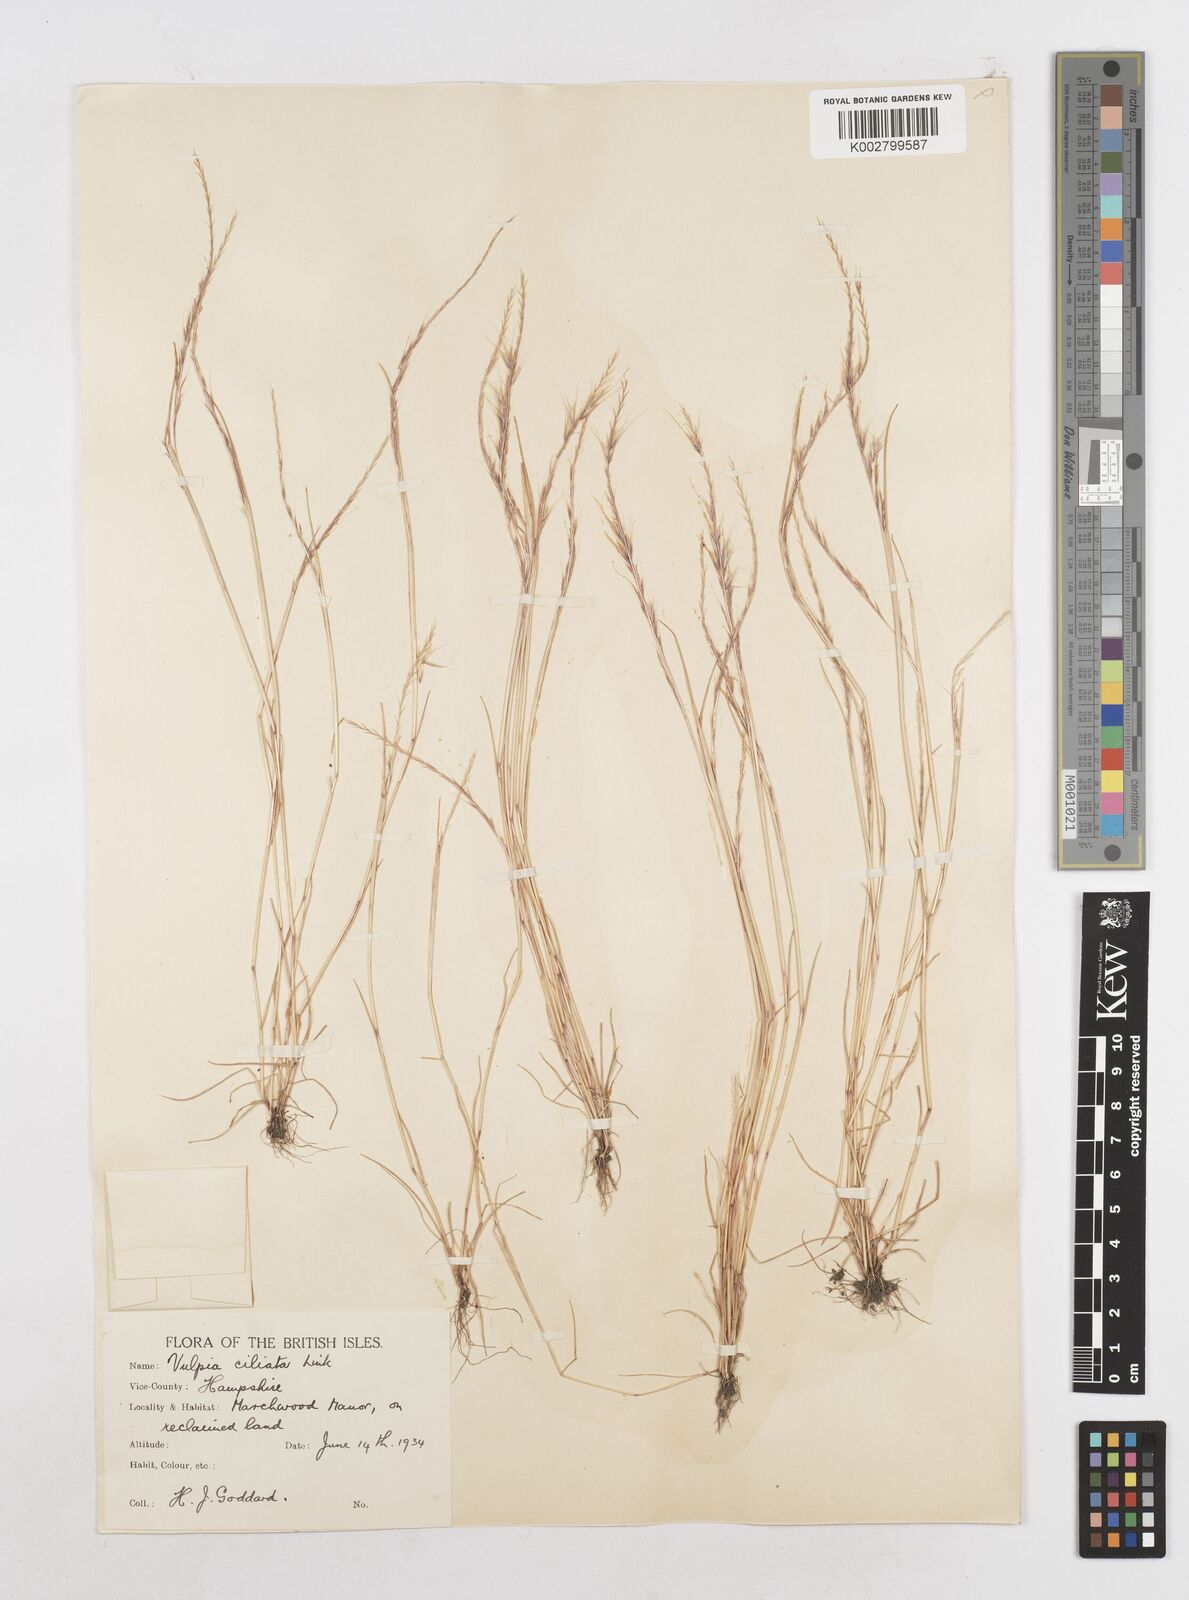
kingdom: Plantae
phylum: Tracheophyta
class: Liliopsida
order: Poales
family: Poaceae
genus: Festuca
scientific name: Festuca
